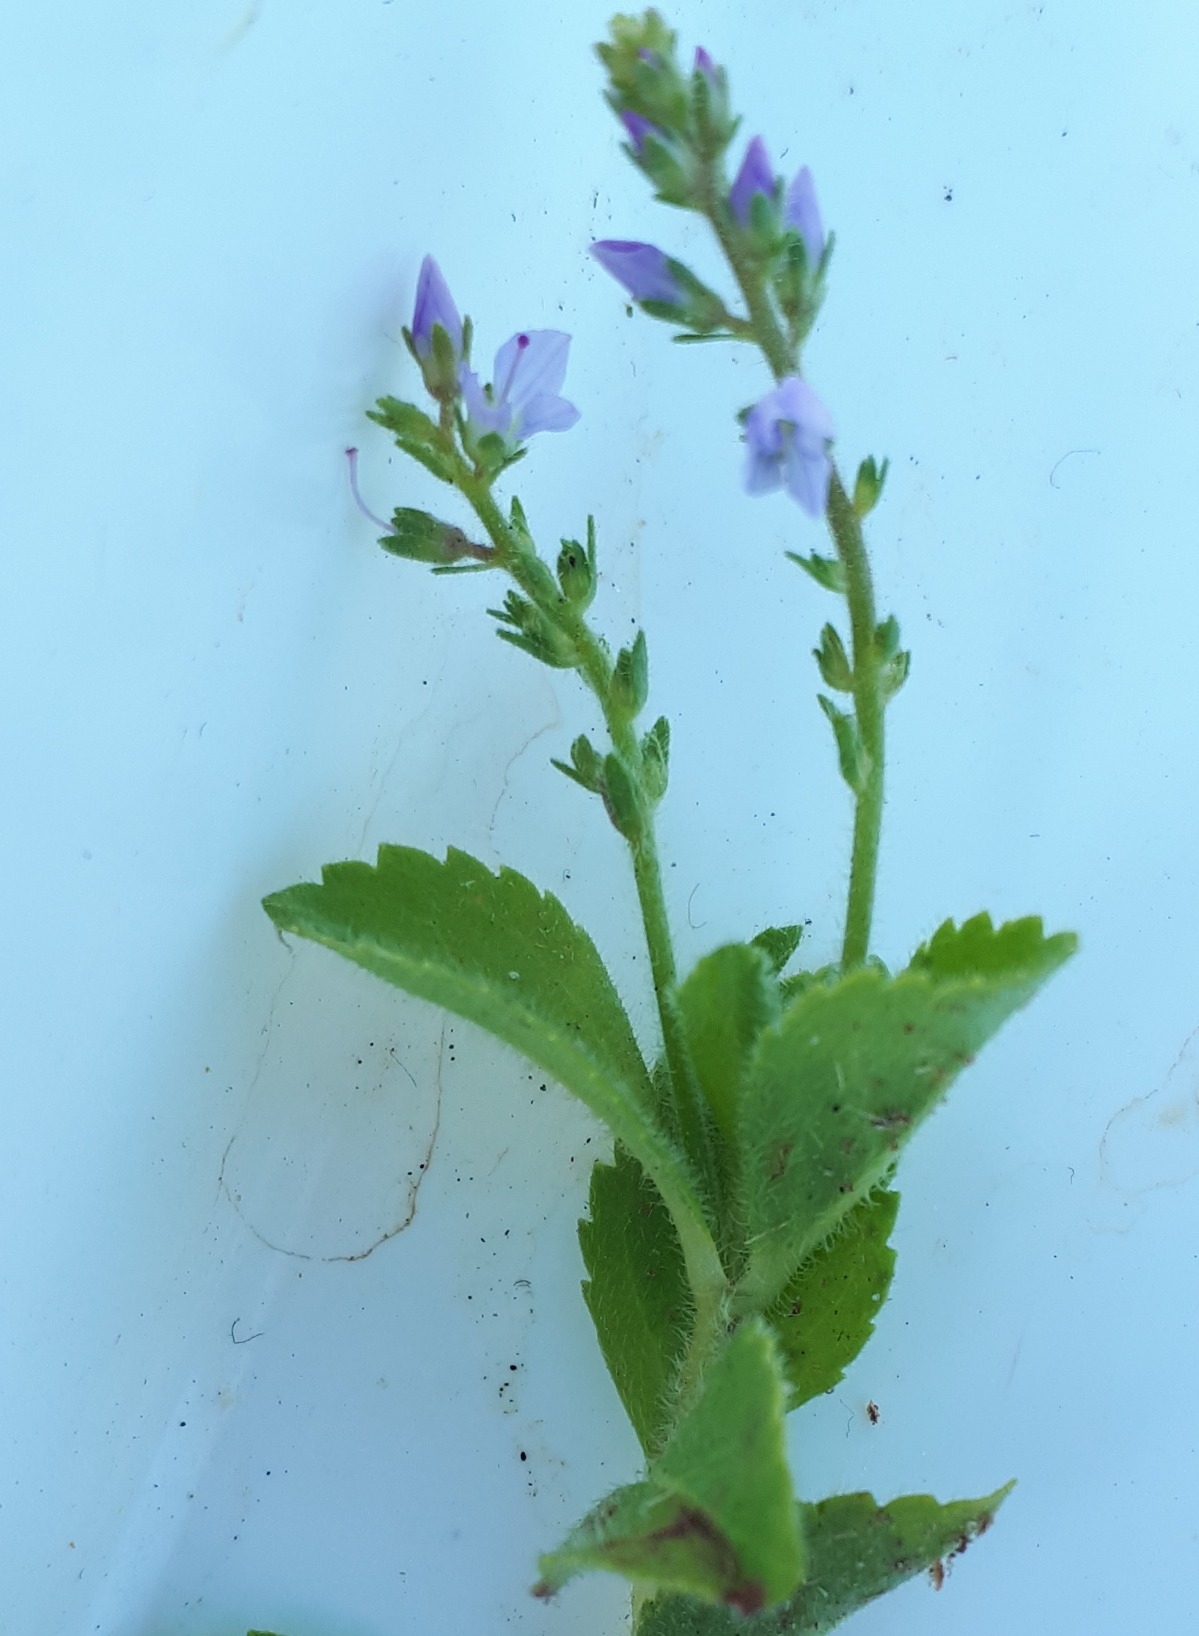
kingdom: Plantae
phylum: Tracheophyta
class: Magnoliopsida
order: Lamiales
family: Plantaginaceae
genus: Veronica
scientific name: Veronica officinalis
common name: Læge-ærenpris
